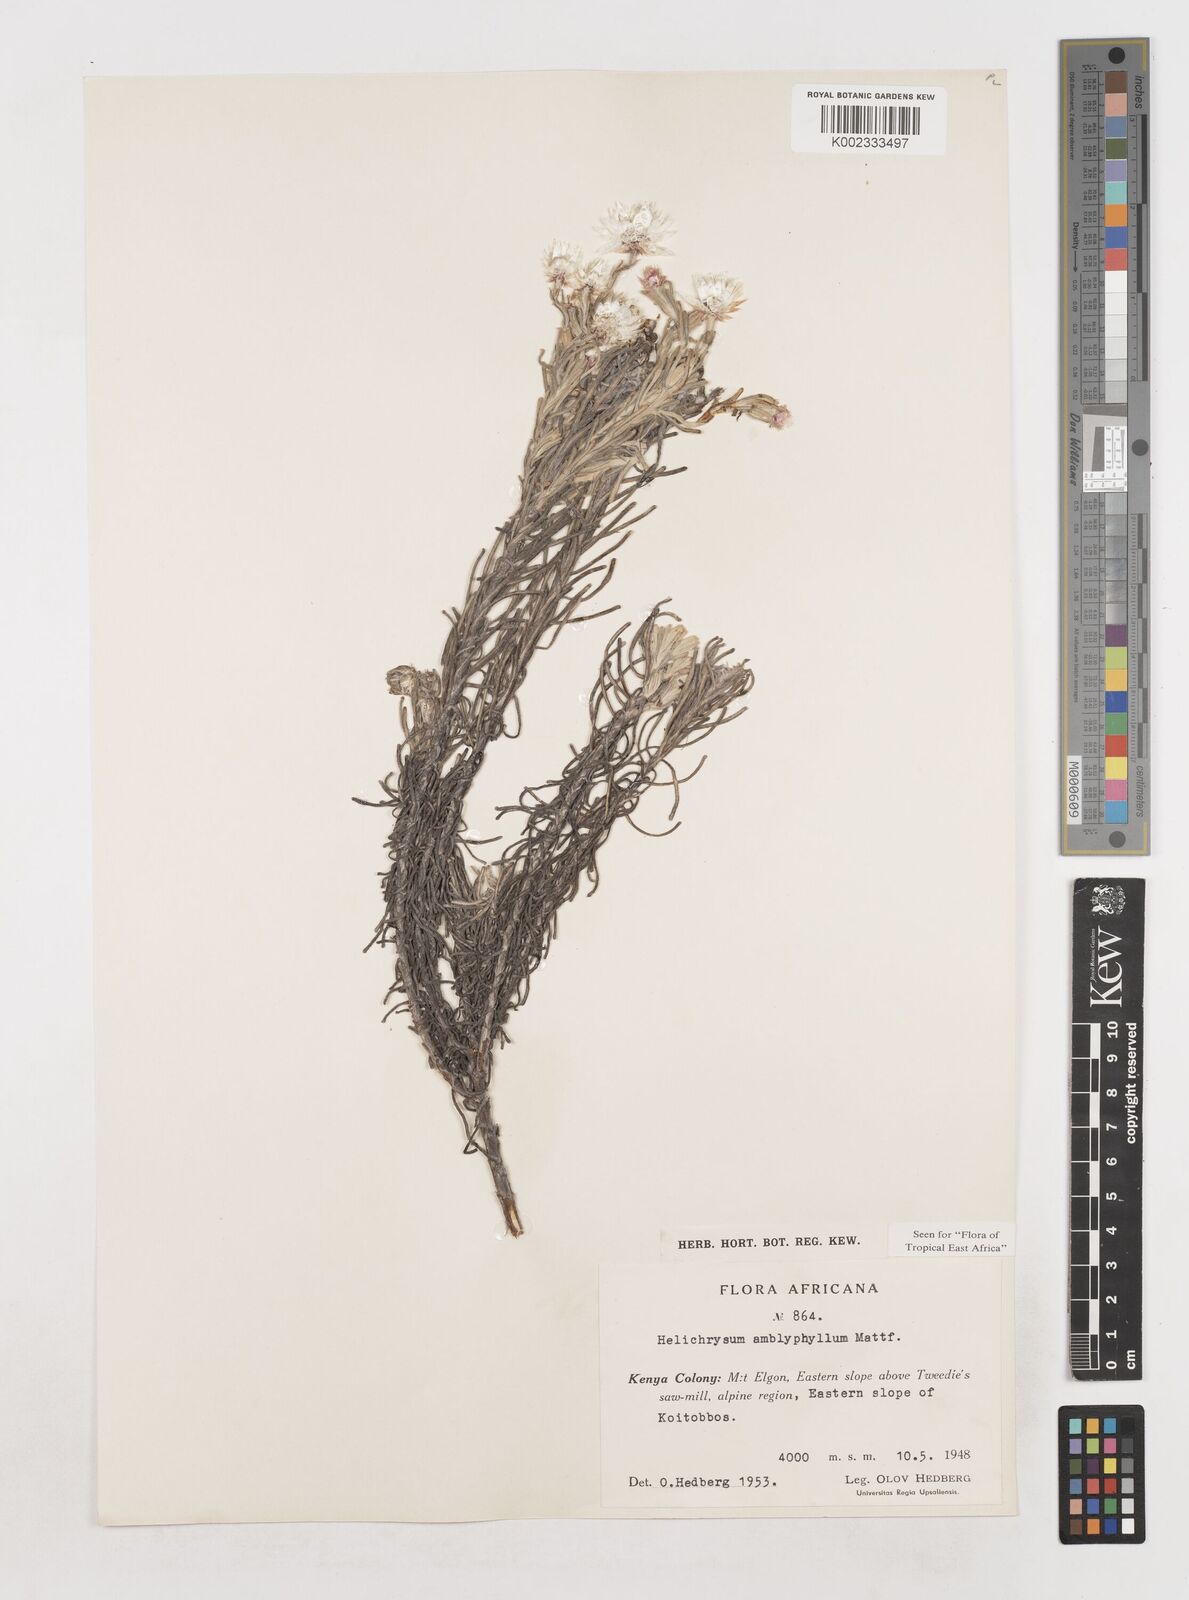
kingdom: Plantae
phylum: Tracheophyta
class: Magnoliopsida
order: Asterales
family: Asteraceae
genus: Helichrysum
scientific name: Helichrysum amblyphyllum
